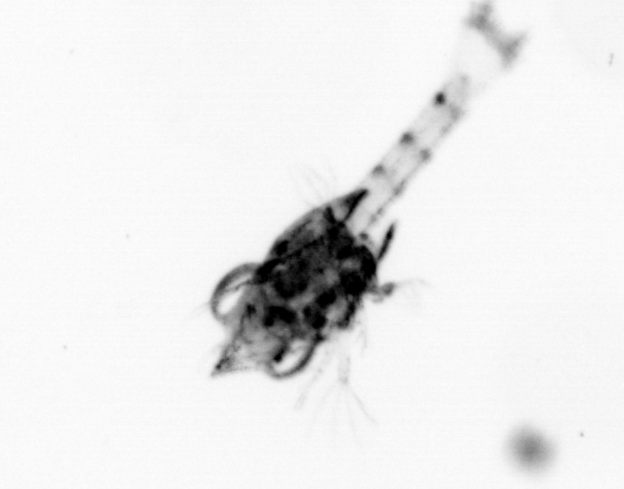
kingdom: Animalia
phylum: Arthropoda
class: Malacostraca
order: Decapoda
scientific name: Decapoda
